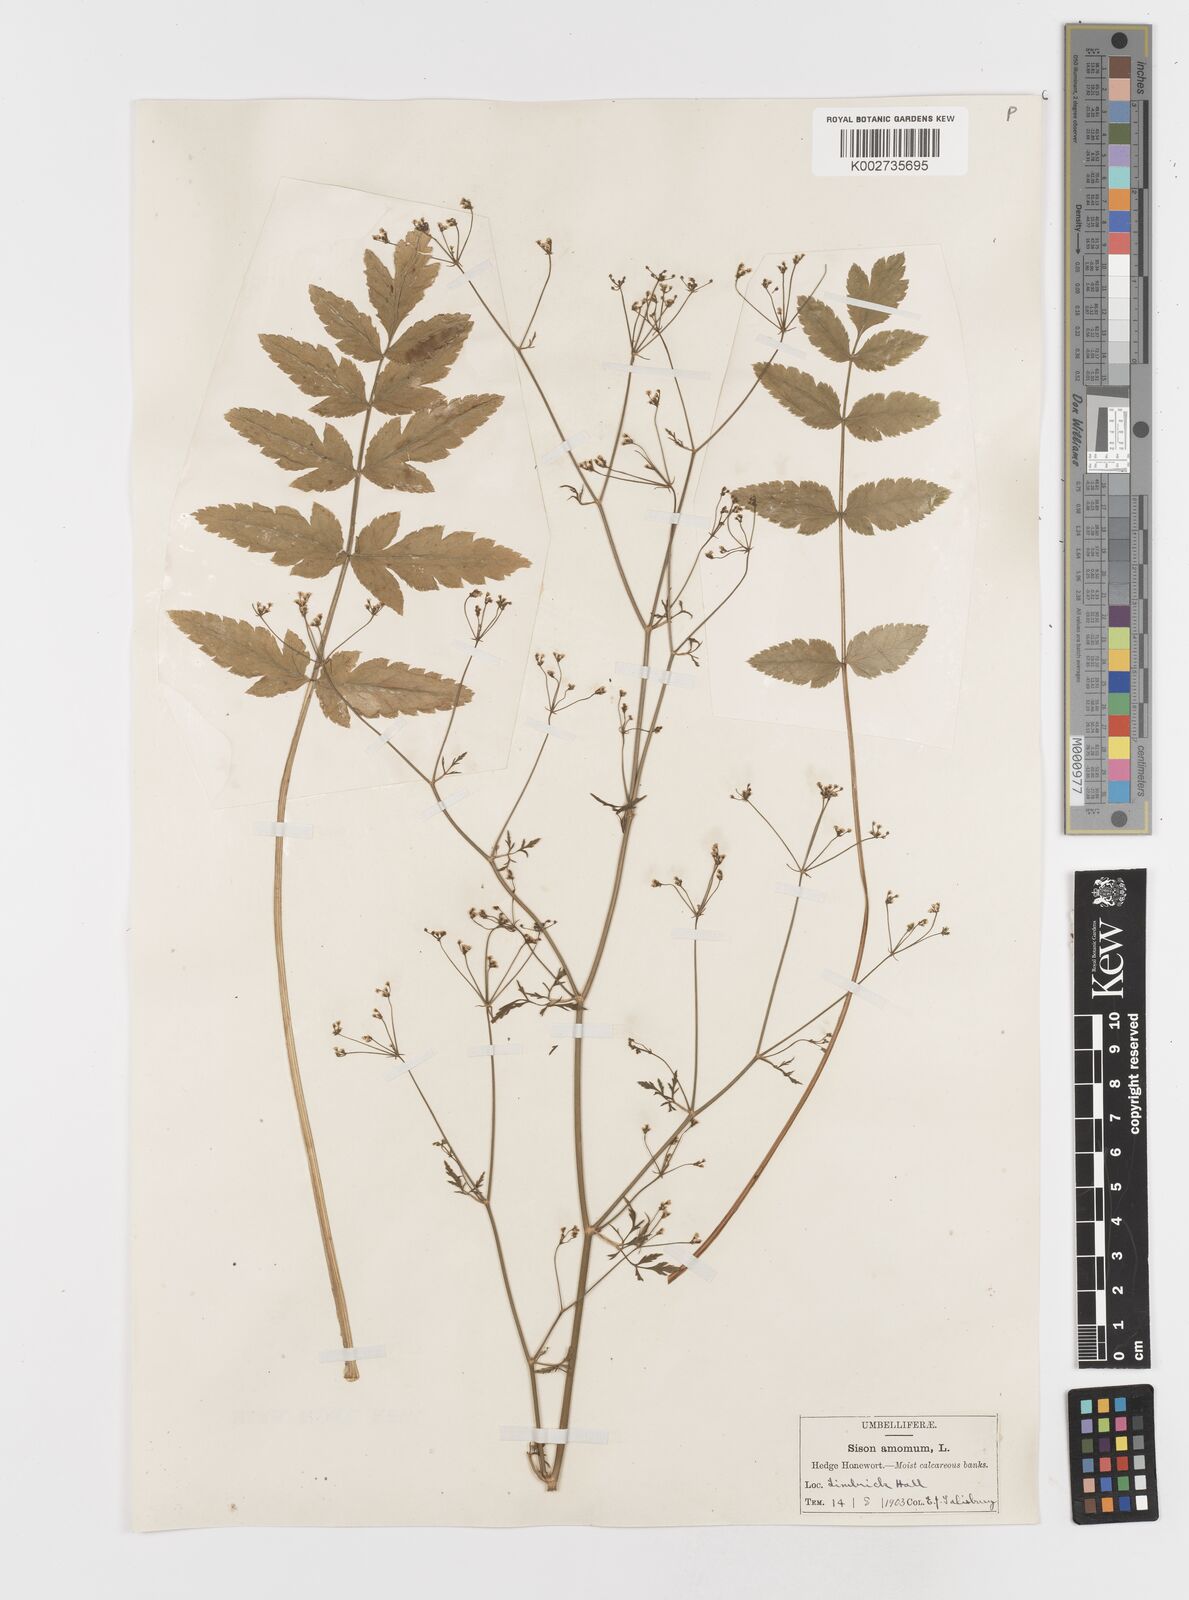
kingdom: Plantae
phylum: Tracheophyta
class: Magnoliopsida
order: Apiales
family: Apiaceae
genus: Sison
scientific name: Sison amomum
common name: Stone-parsley
